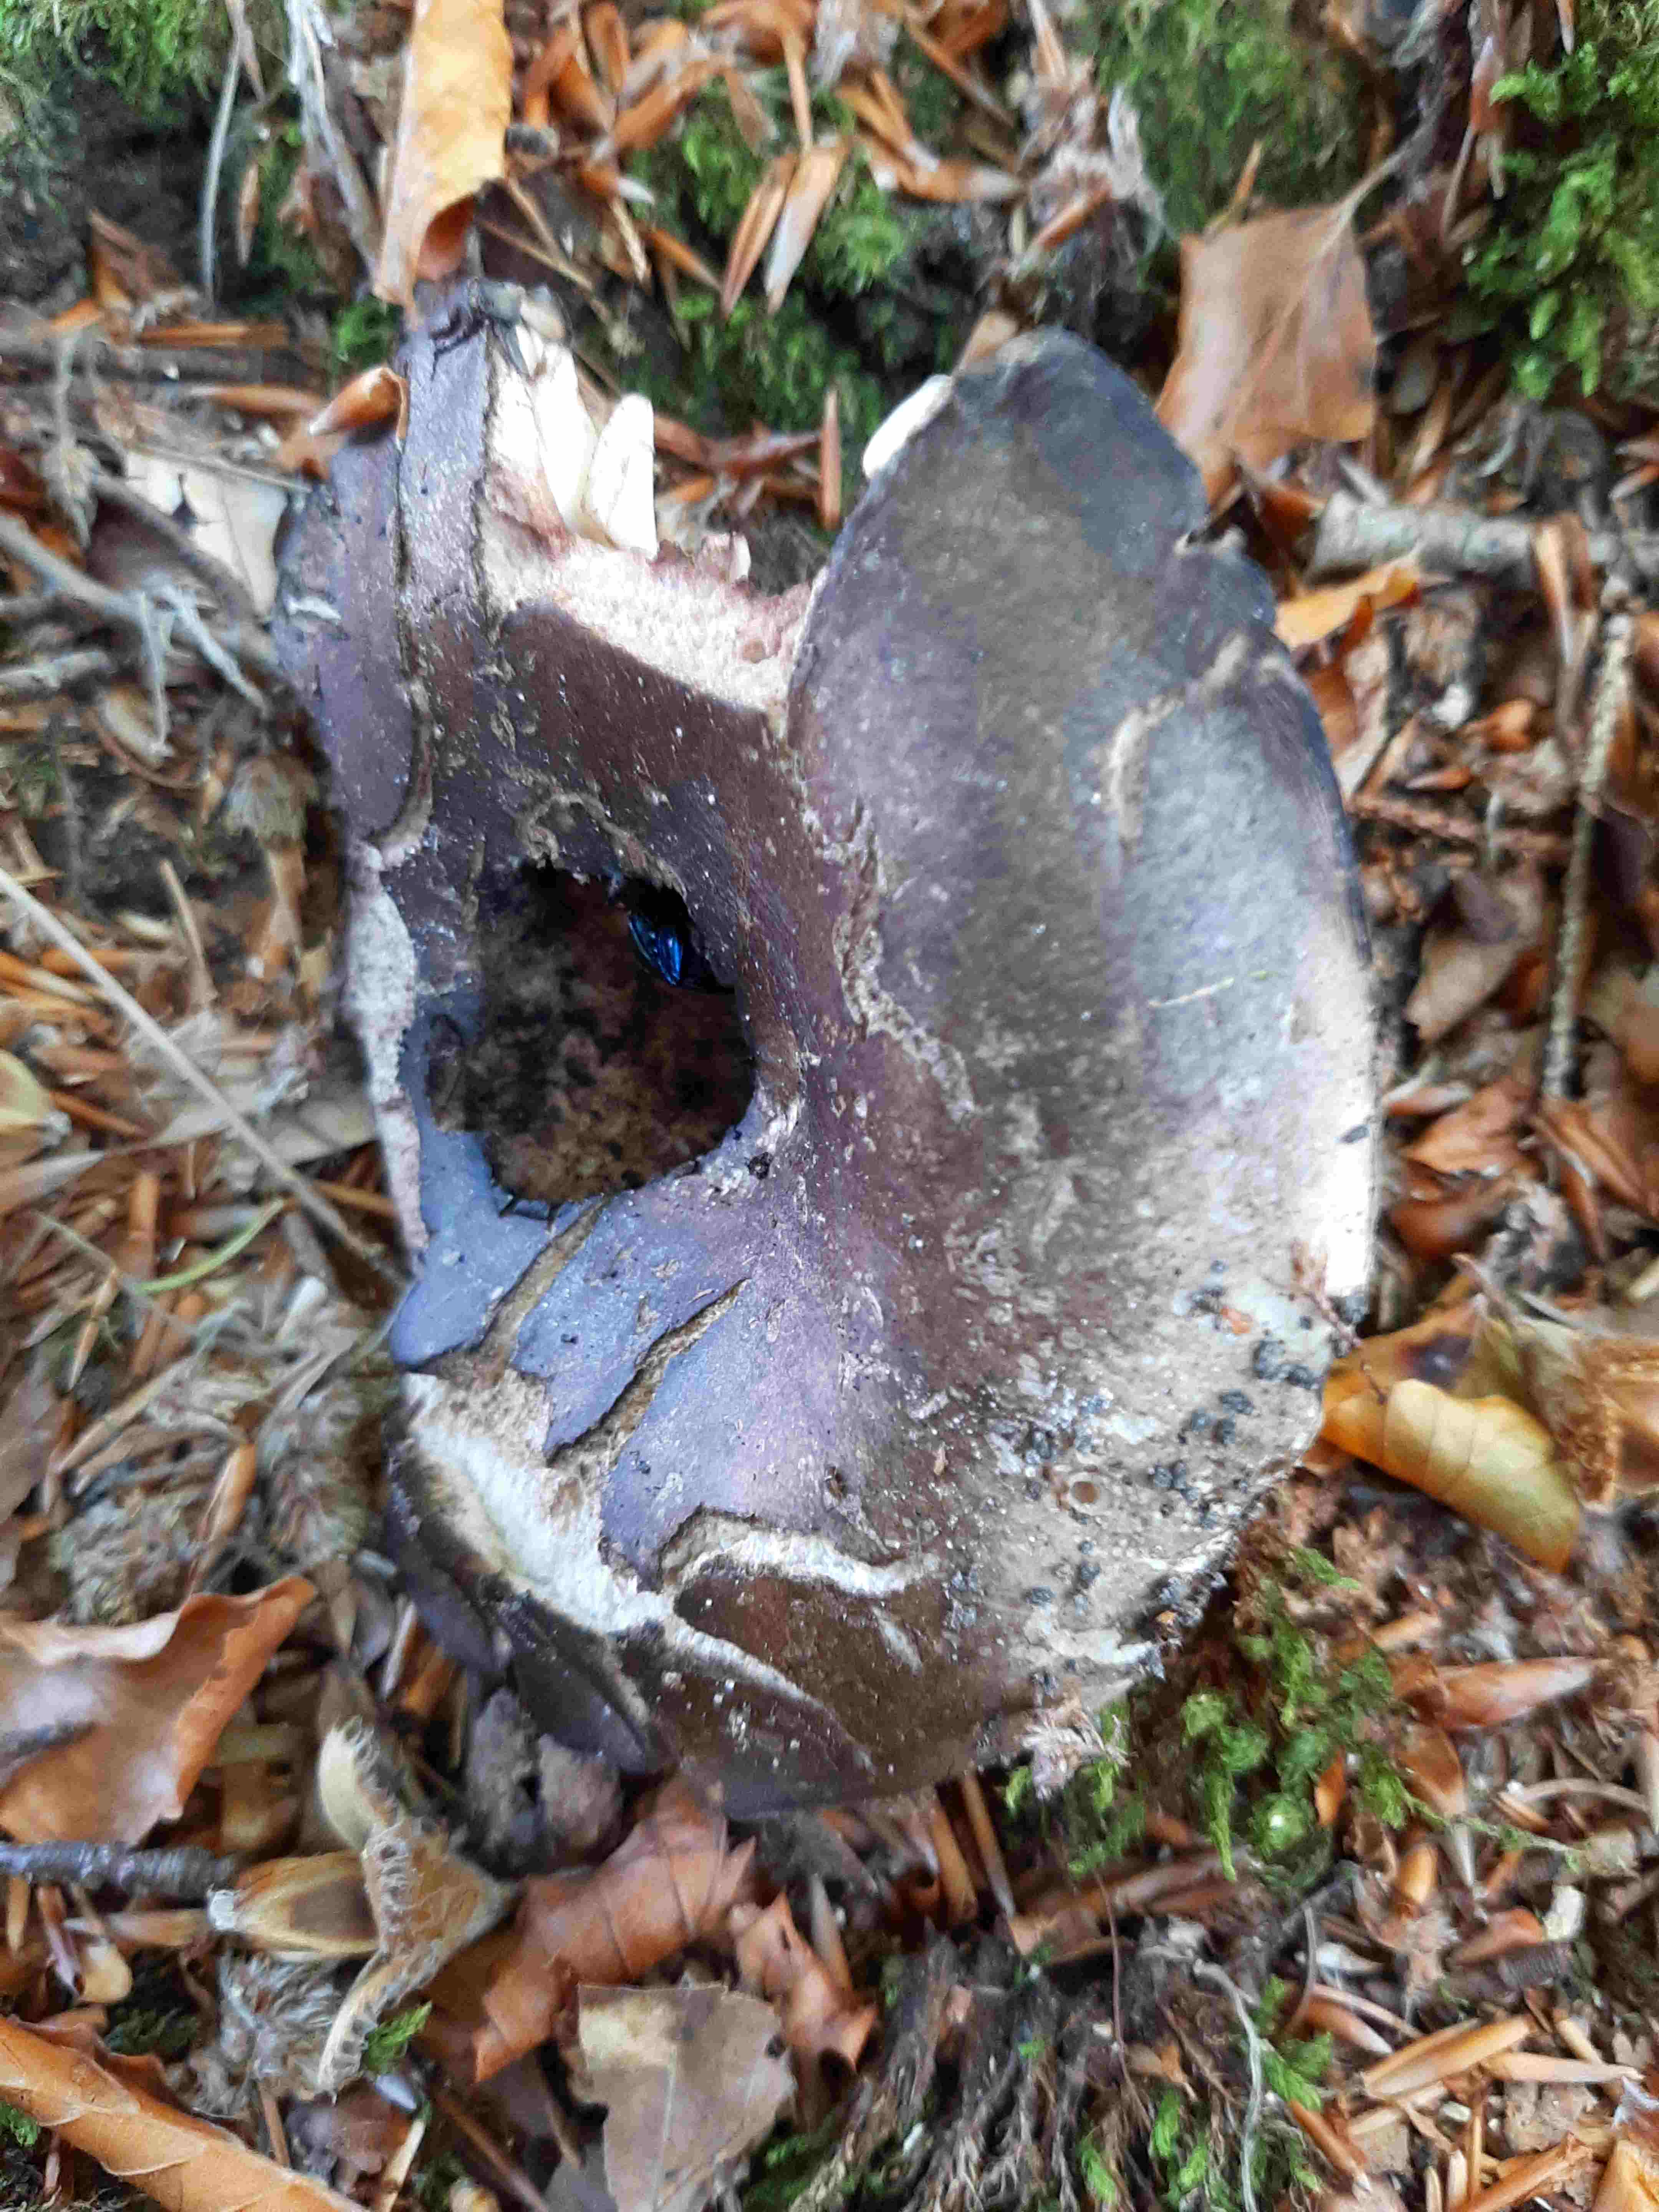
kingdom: Fungi
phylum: Basidiomycota
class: Agaricomycetes
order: Russulales
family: Russulaceae
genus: Russula
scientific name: Russula adusta
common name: sværtende skørhat
